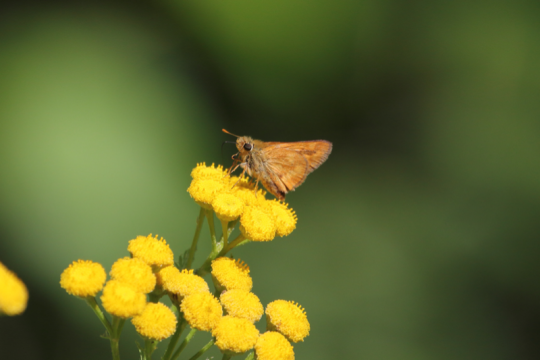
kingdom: Animalia
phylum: Arthropoda
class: Insecta
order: Lepidoptera
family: Hesperiidae
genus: Ochlodes
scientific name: Ochlodes sylvanoides
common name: Woodland Skipper
